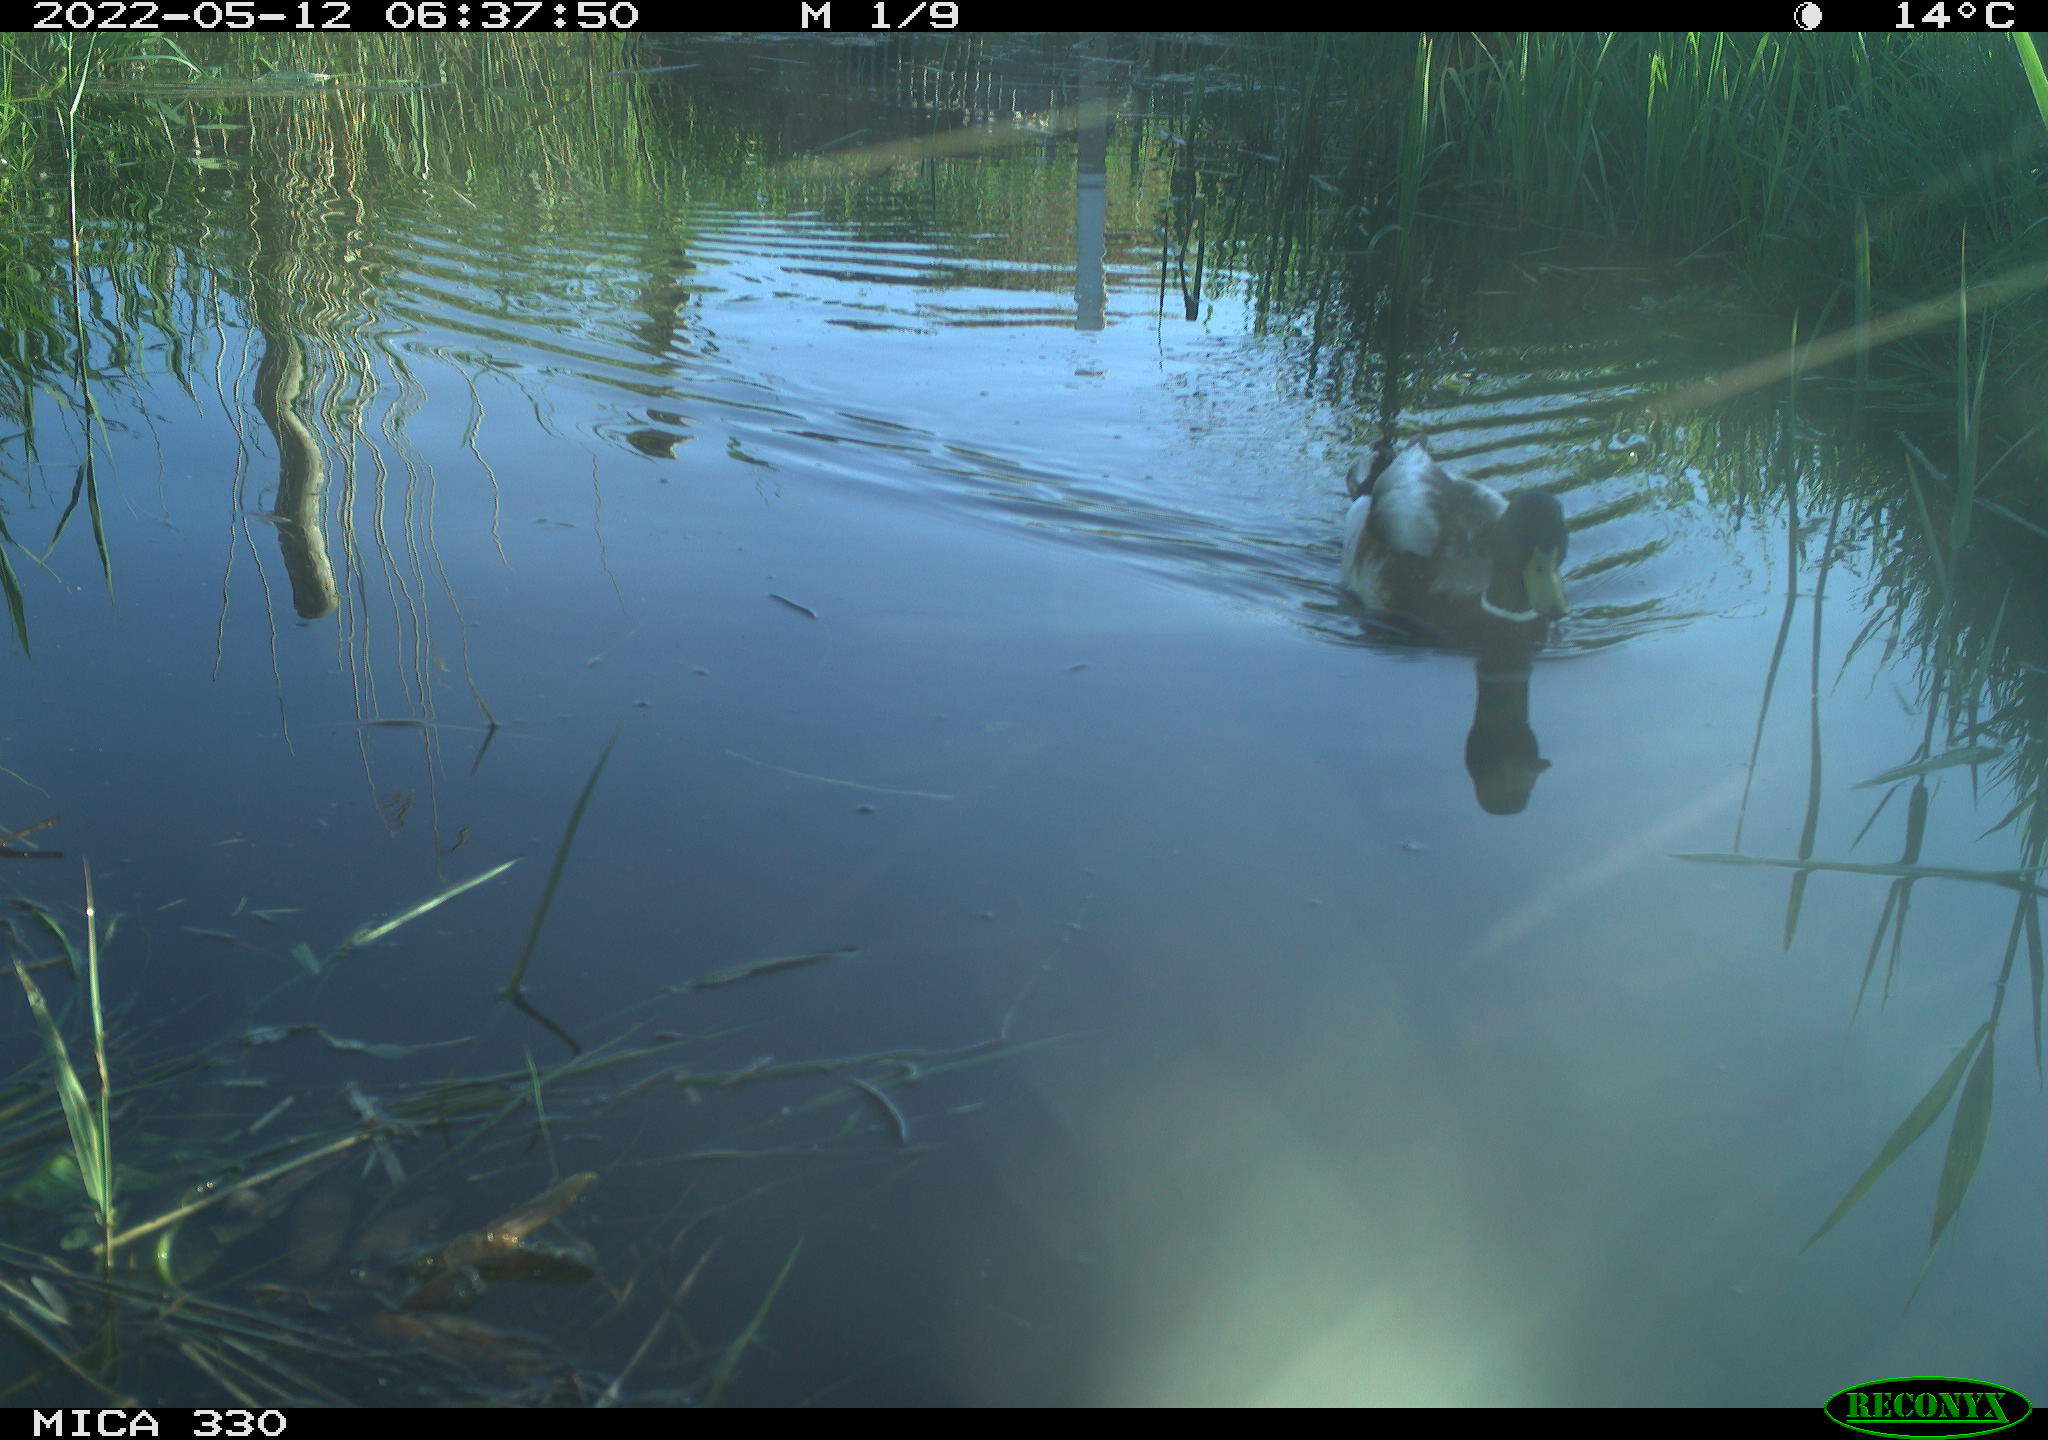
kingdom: Animalia
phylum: Chordata
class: Aves
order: Anseriformes
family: Anatidae
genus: Anas
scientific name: Anas platyrhynchos
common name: Mallard
